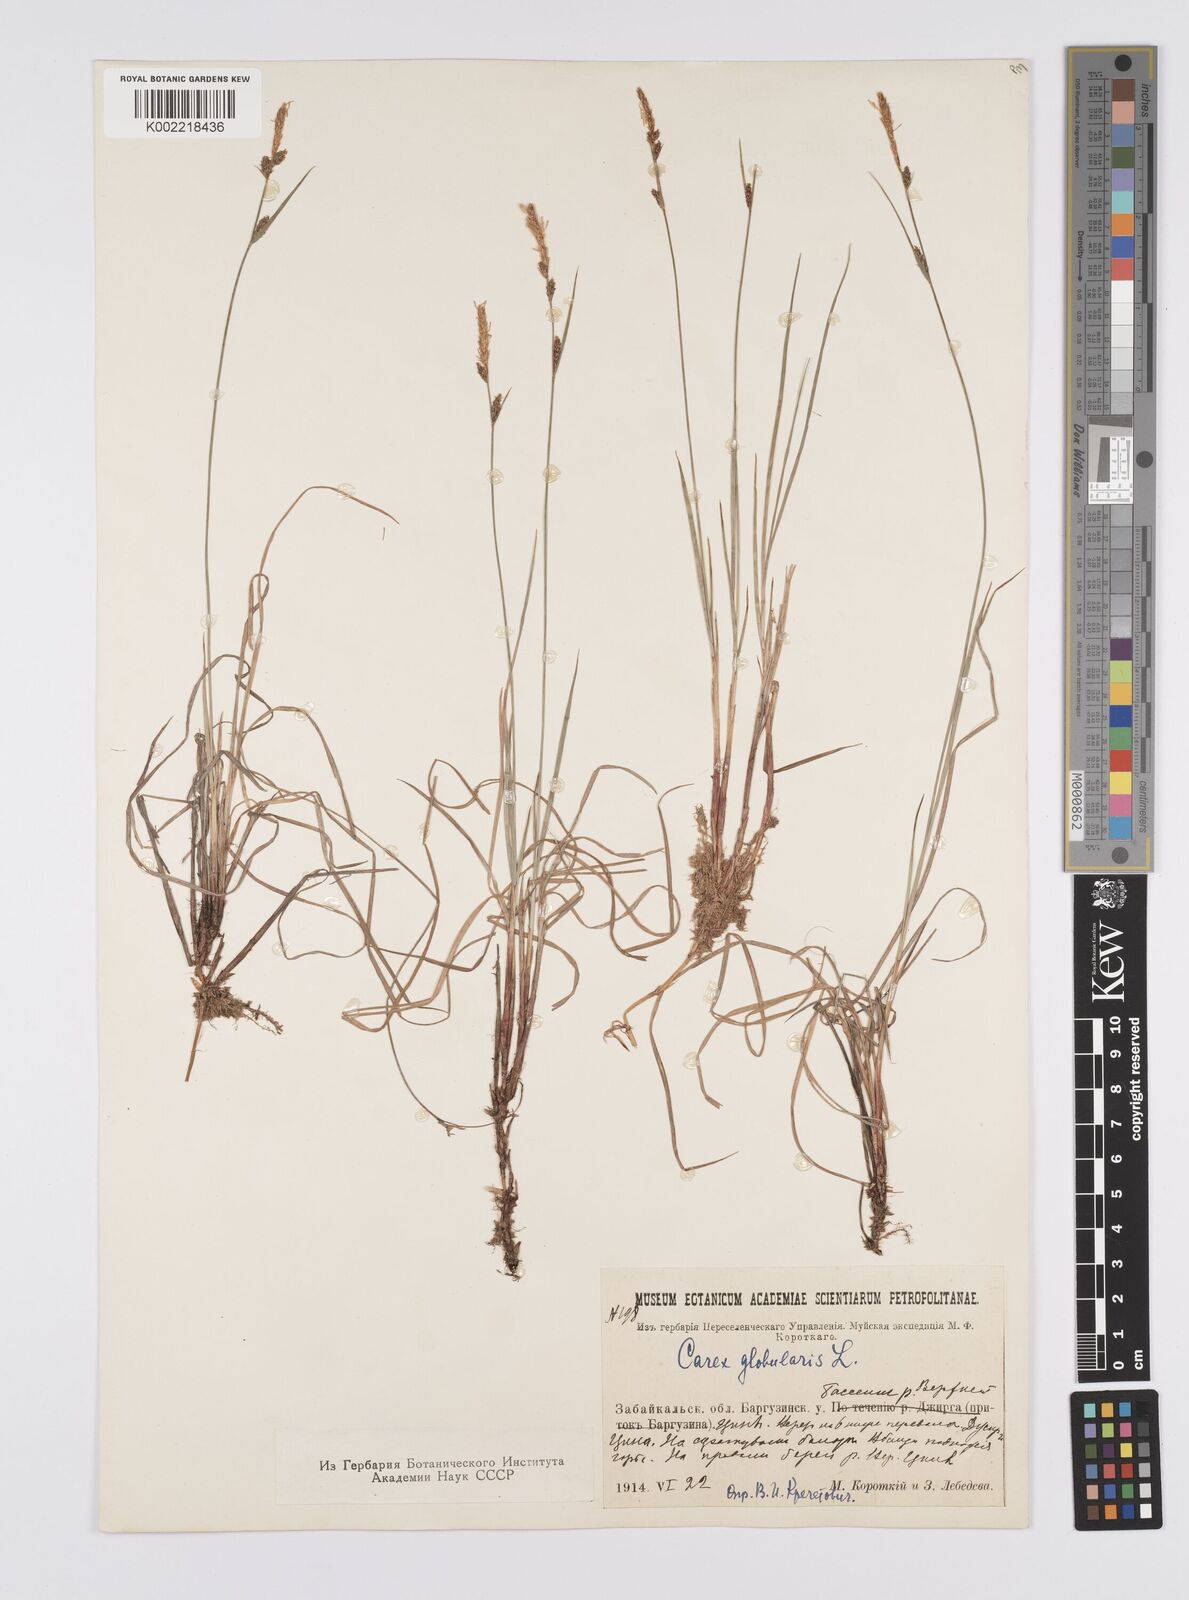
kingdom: Plantae
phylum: Tracheophyta
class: Liliopsida
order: Poales
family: Cyperaceae
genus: Carex
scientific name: Carex globularis
